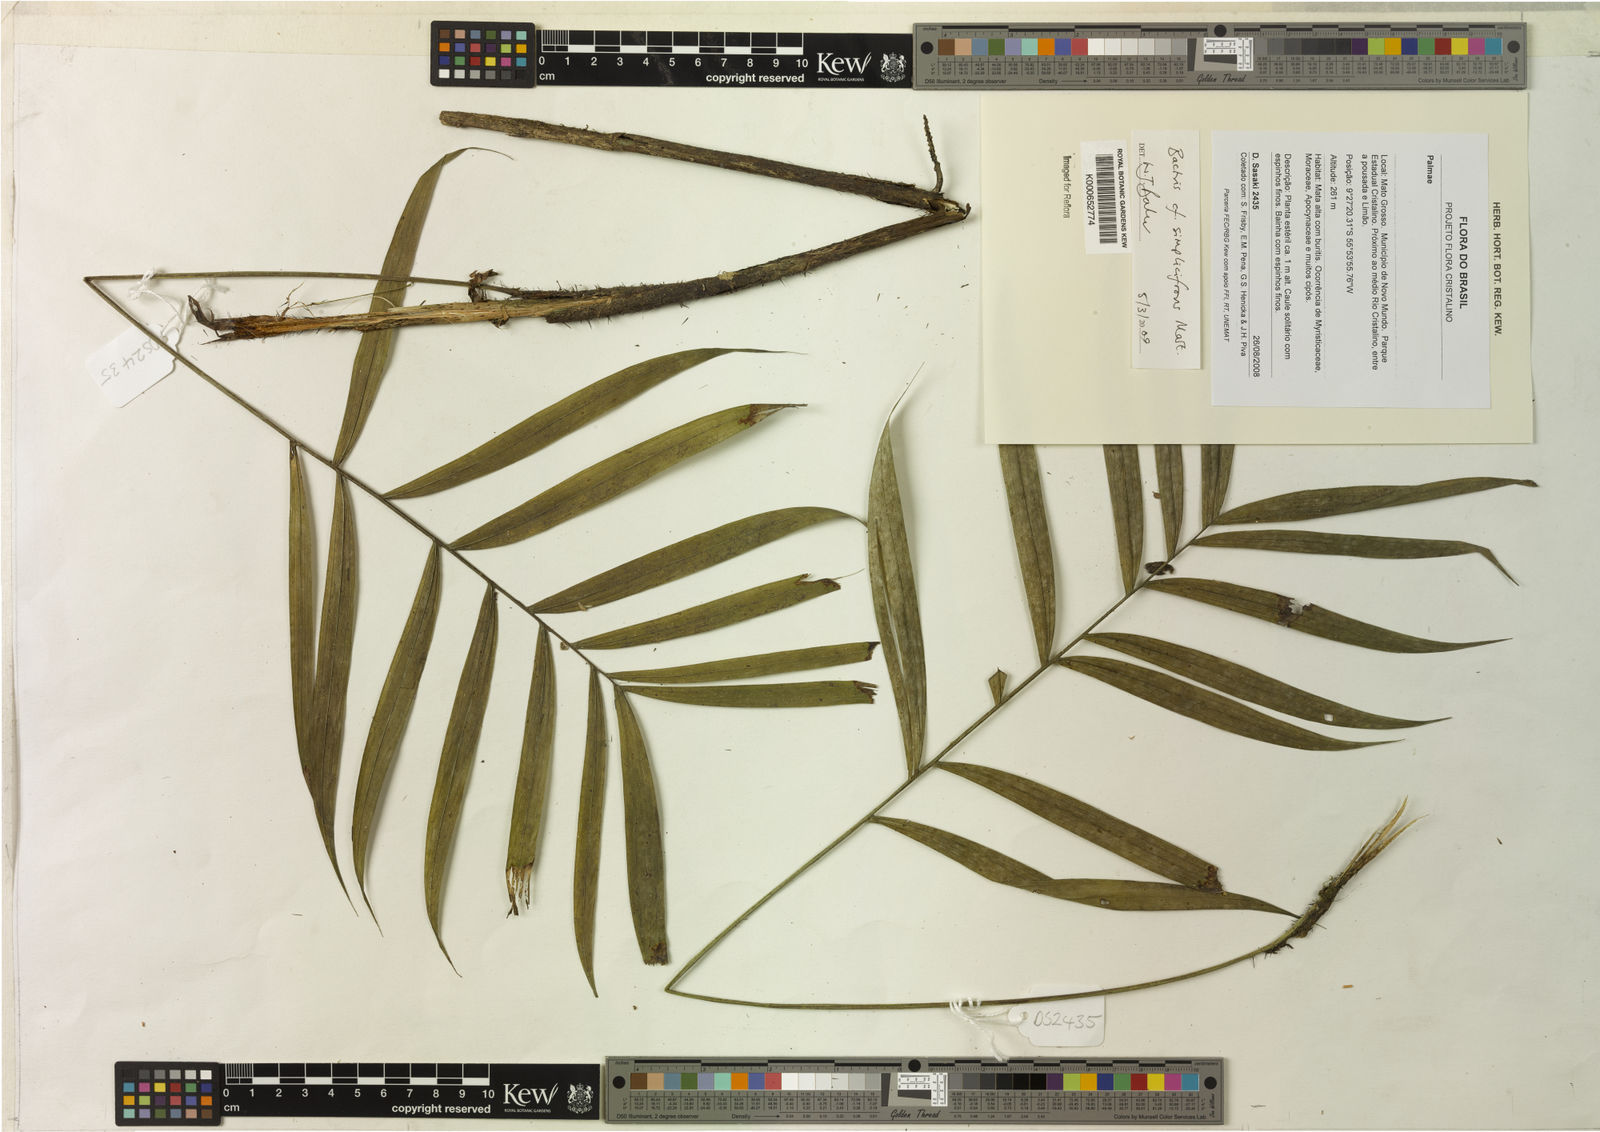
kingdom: Plantae
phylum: Tracheophyta
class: Liliopsida
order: Arecales
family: Arecaceae
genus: Bactris
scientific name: Bactris simplicifrons
